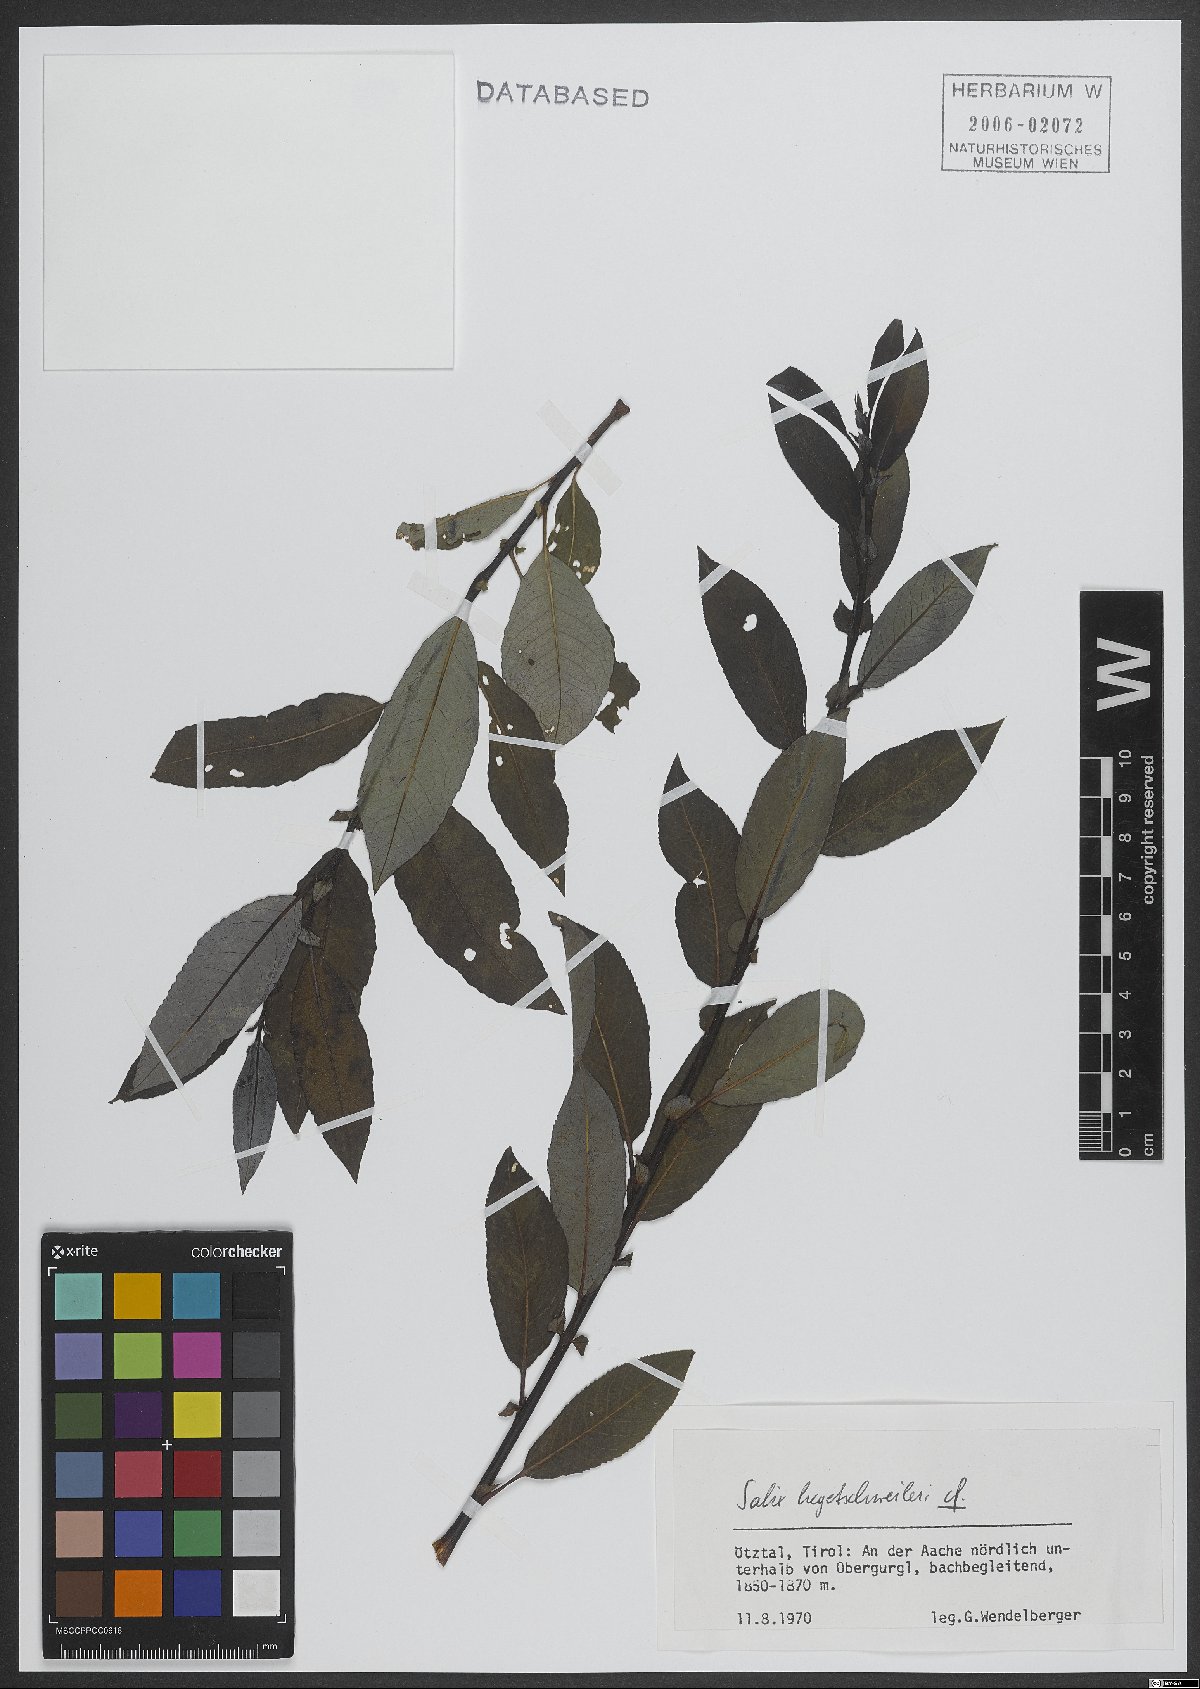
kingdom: Plantae
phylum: Tracheophyta
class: Magnoliopsida
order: Malpighiales
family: Salicaceae
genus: Salix
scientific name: Salix hegetschweileri
